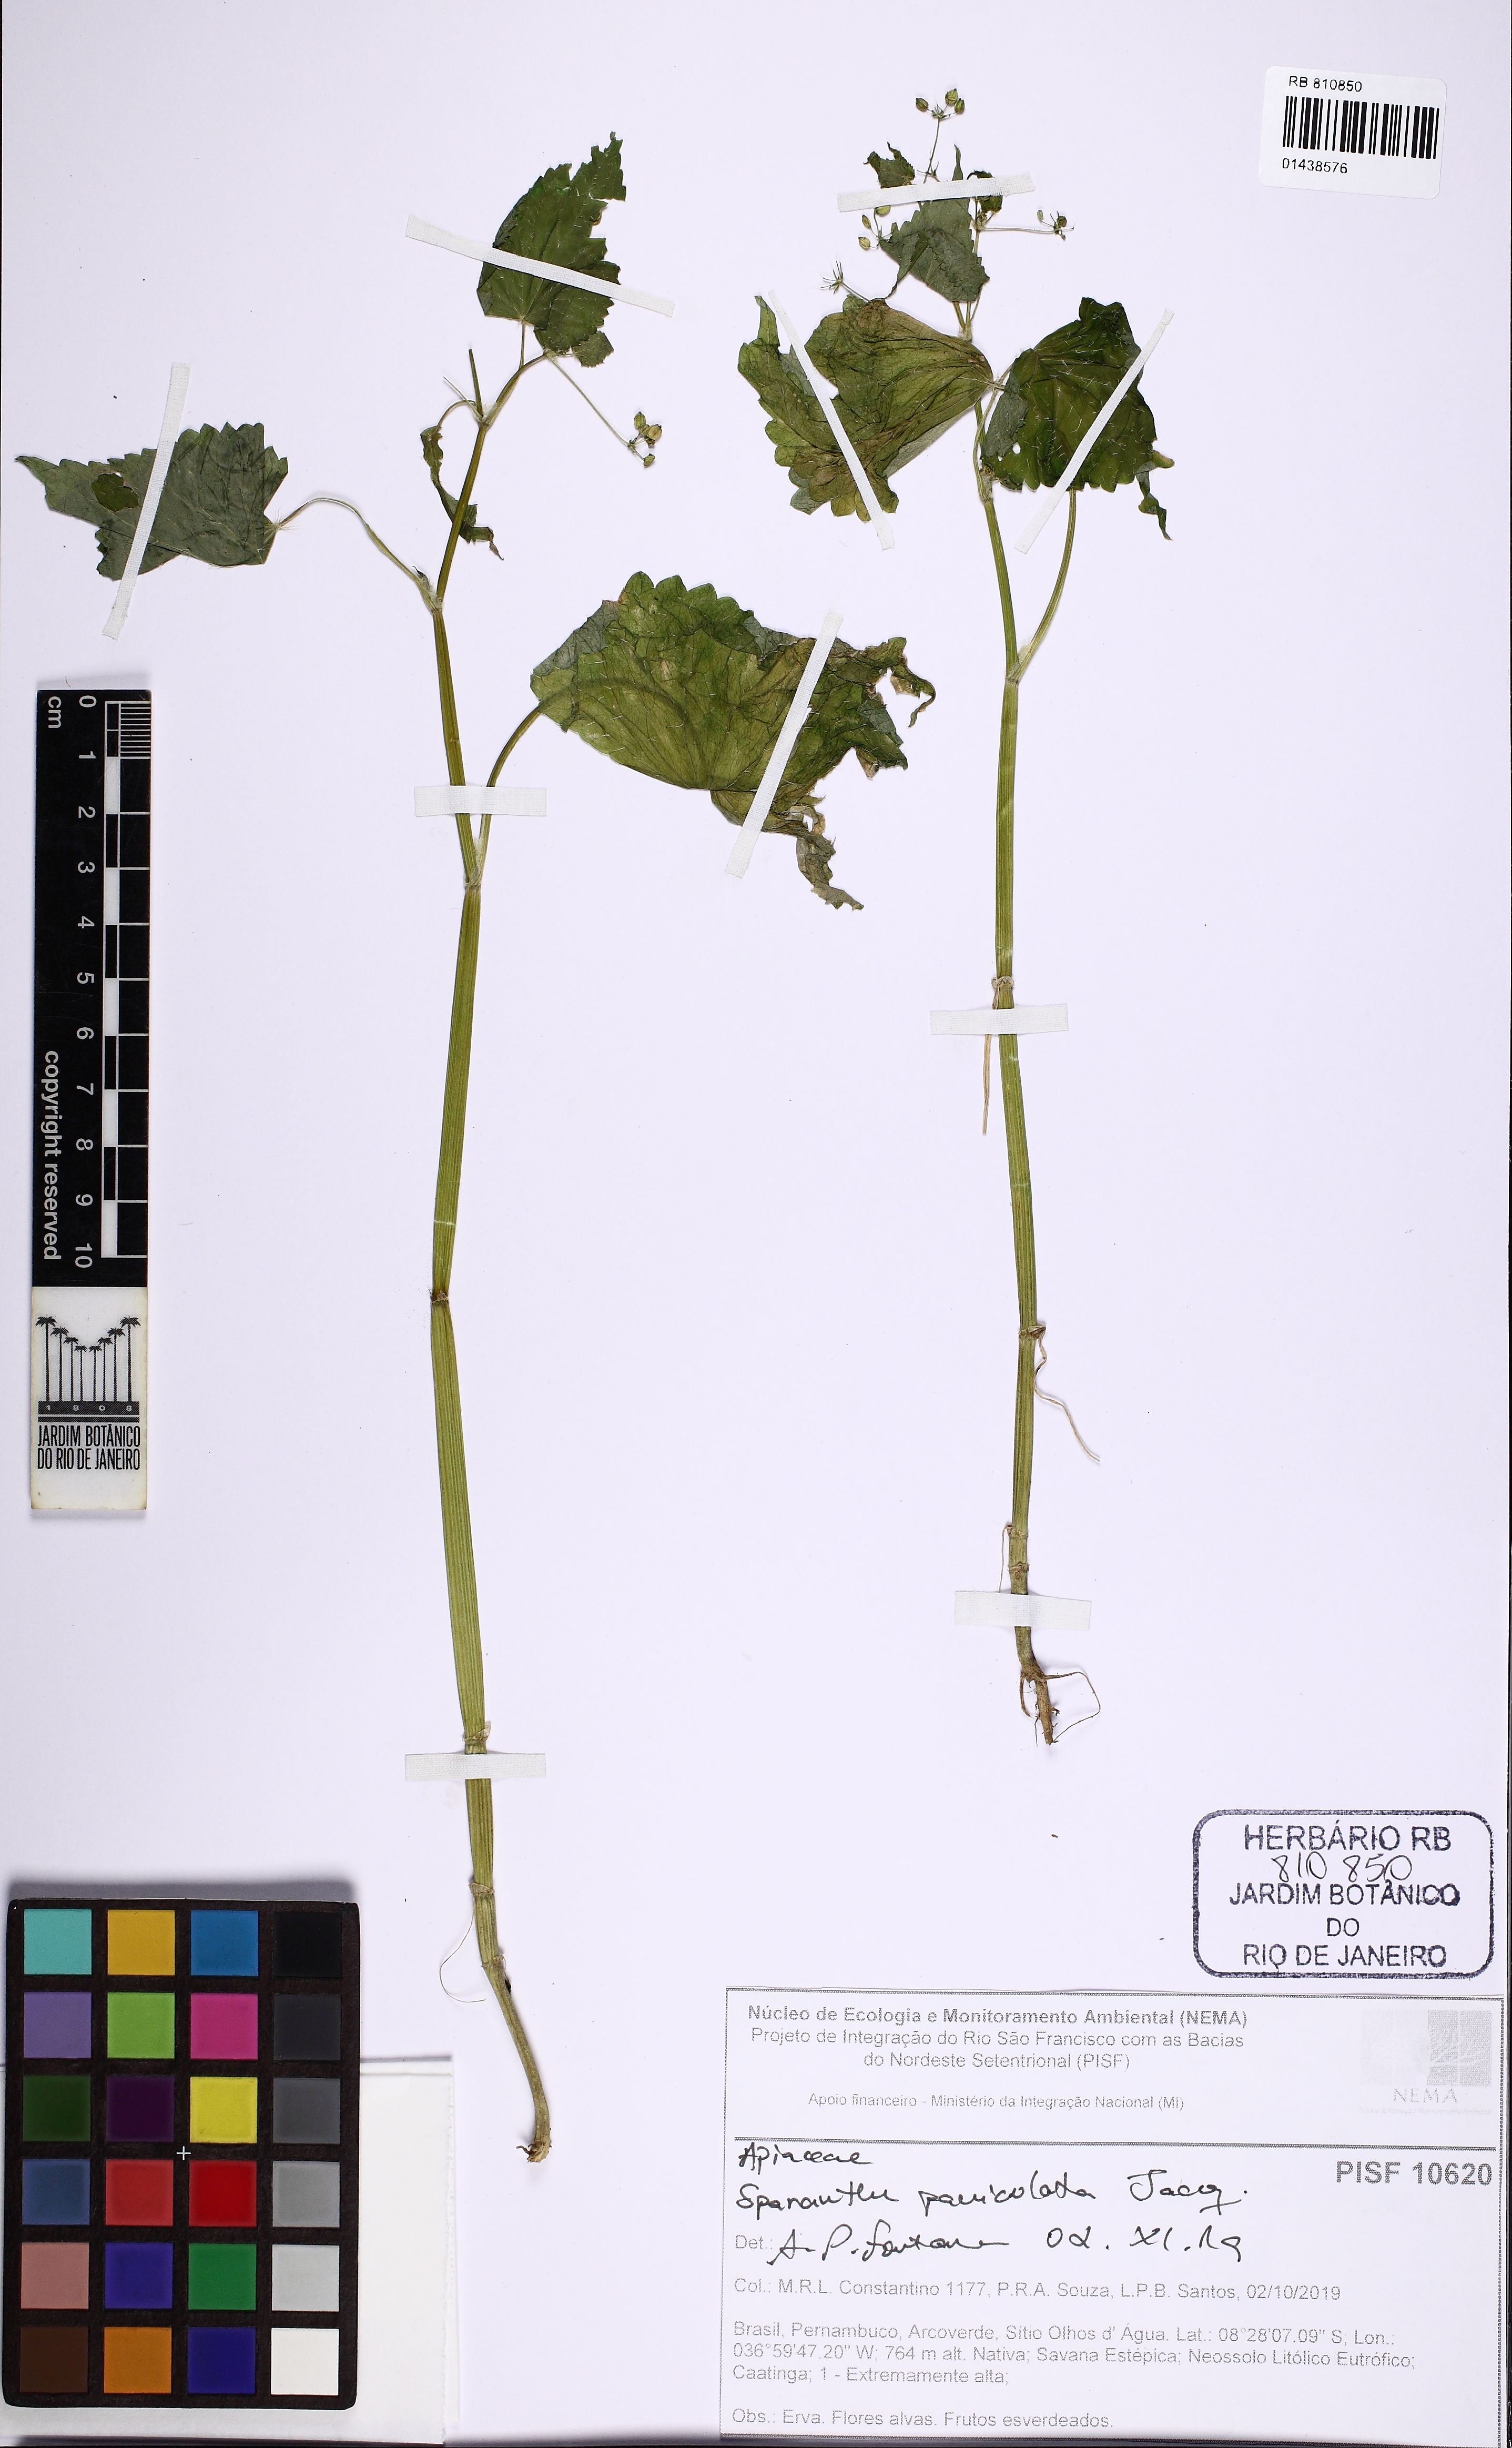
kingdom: Plantae
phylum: Tracheophyta
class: Magnoliopsida
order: Apiales
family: Apiaceae
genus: Spananthe
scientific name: Spananthe paniculata
